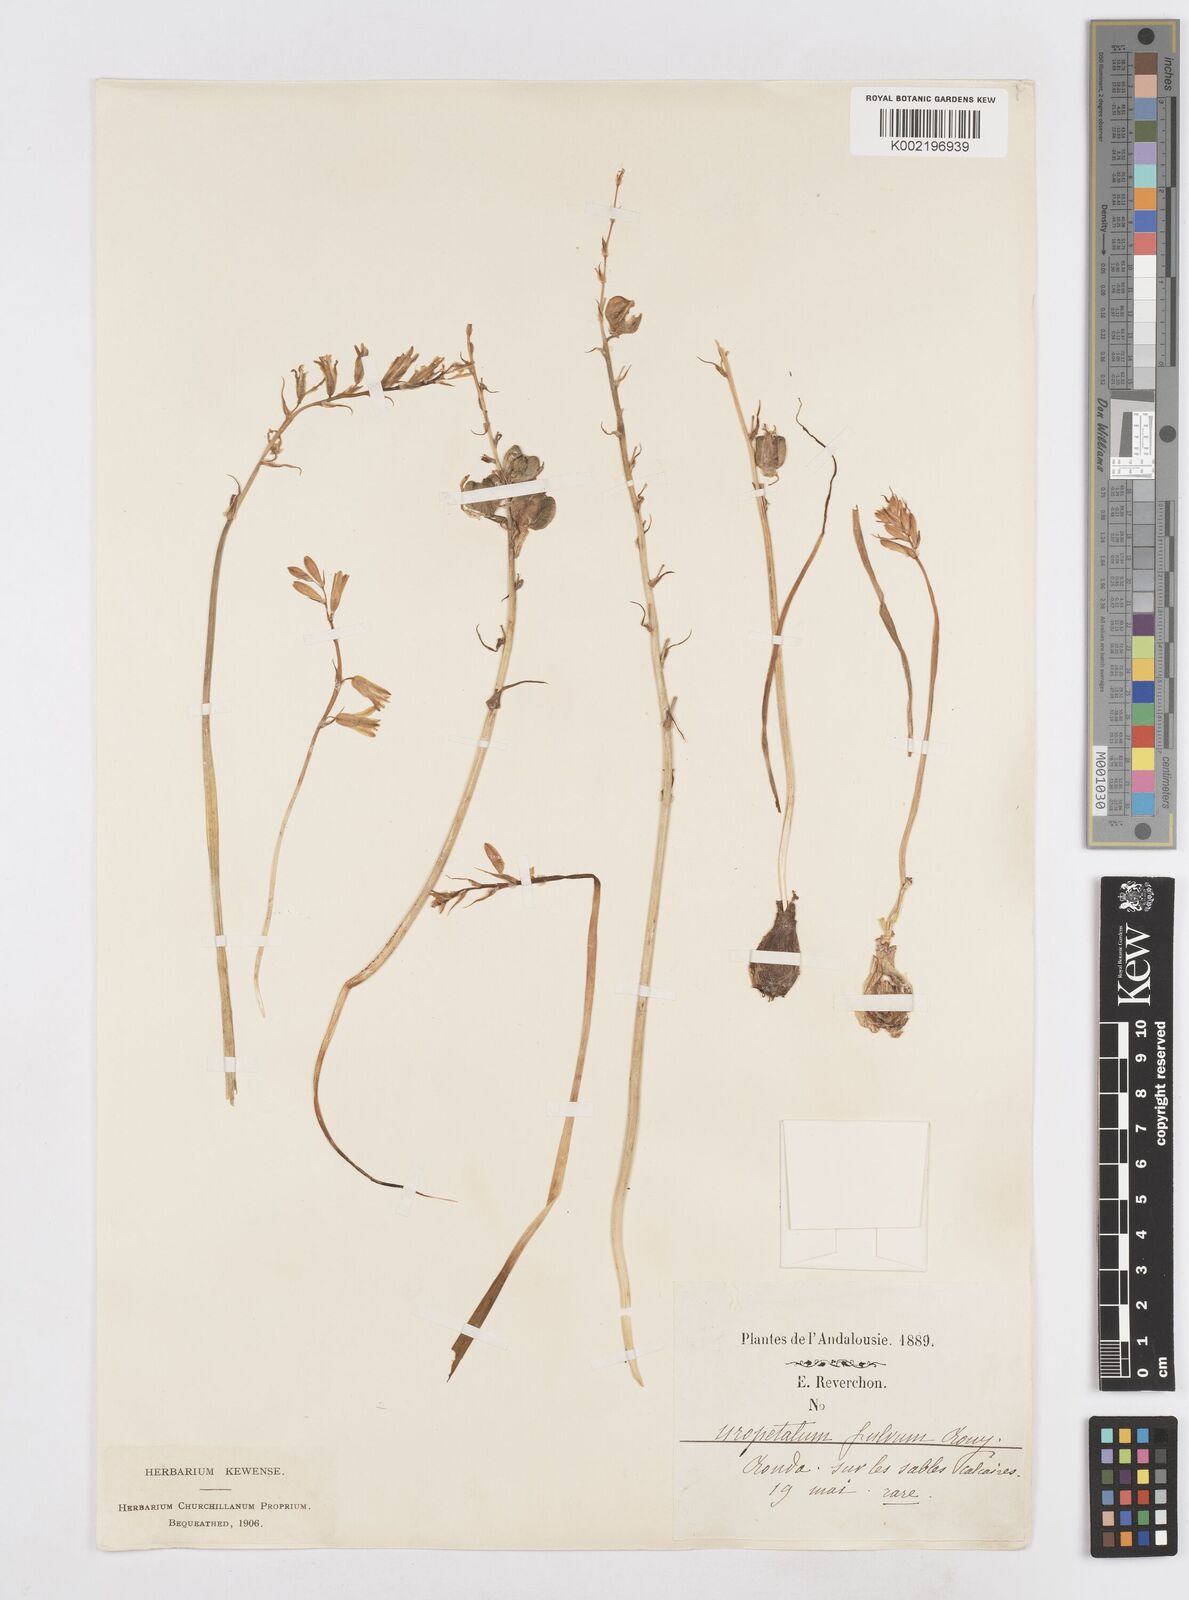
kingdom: Plantae
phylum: Tracheophyta
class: Liliopsida
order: Asparagales
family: Asparagaceae
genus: Dipcadi
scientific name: Dipcadi serotinum
